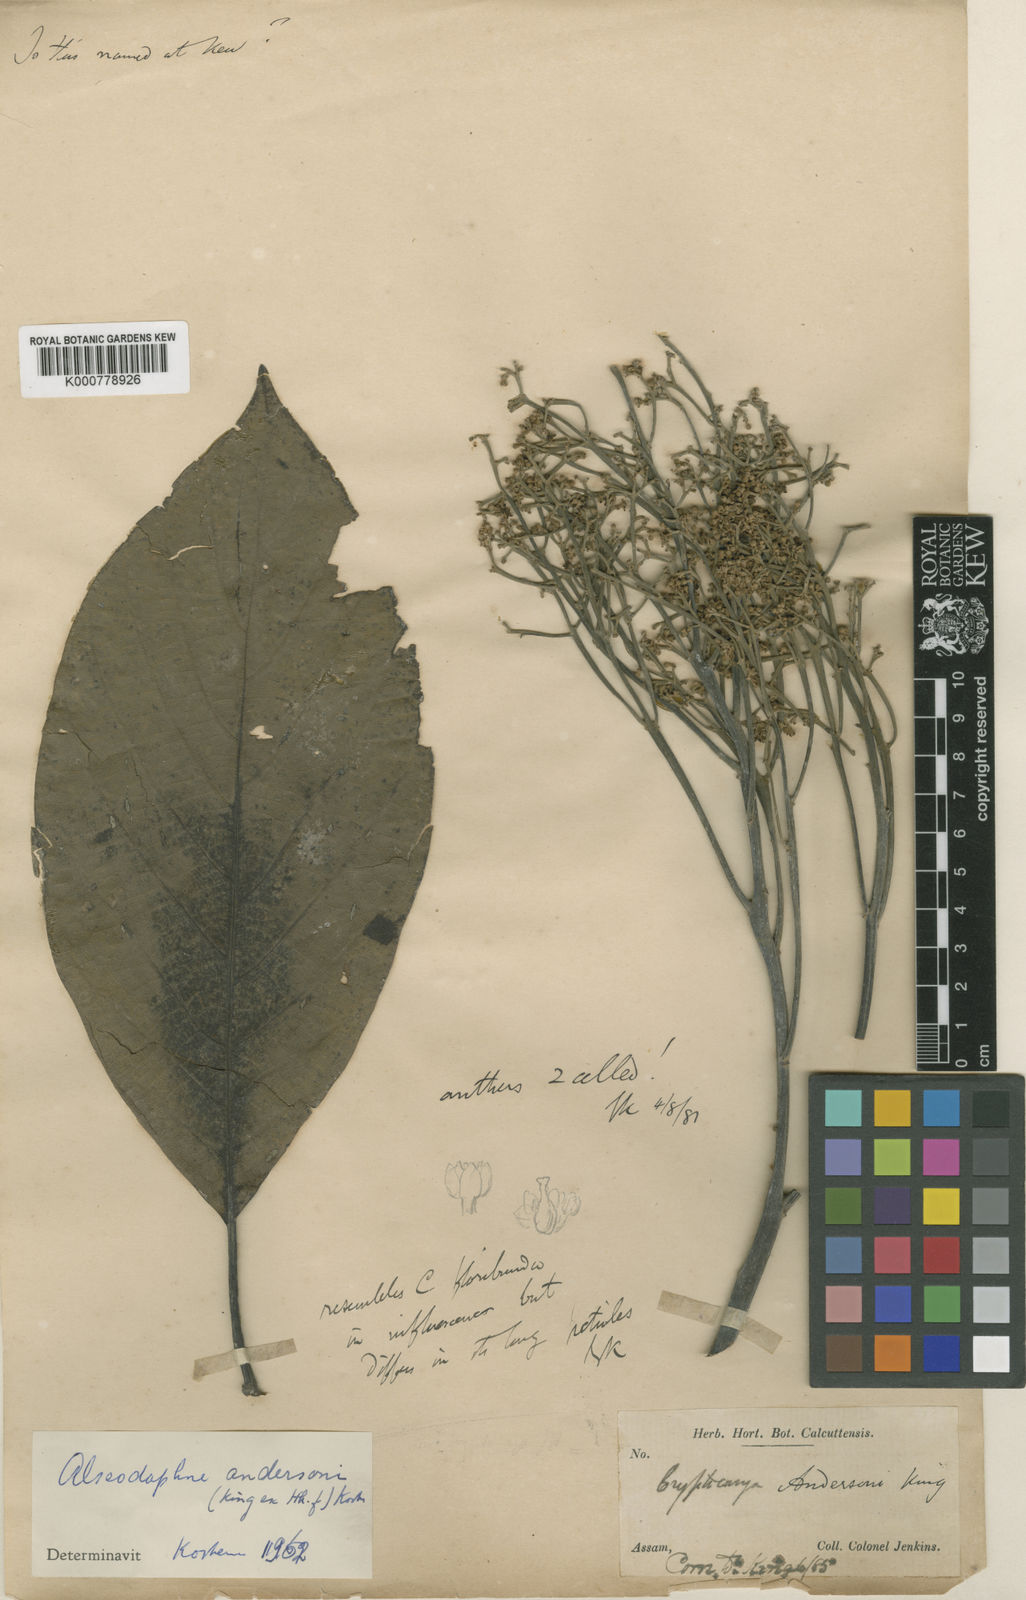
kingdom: Plantae
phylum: Tracheophyta
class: Magnoliopsida
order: Laurales
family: Lauraceae
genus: Alseodaphnopsis
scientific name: Alseodaphnopsis andersonii
